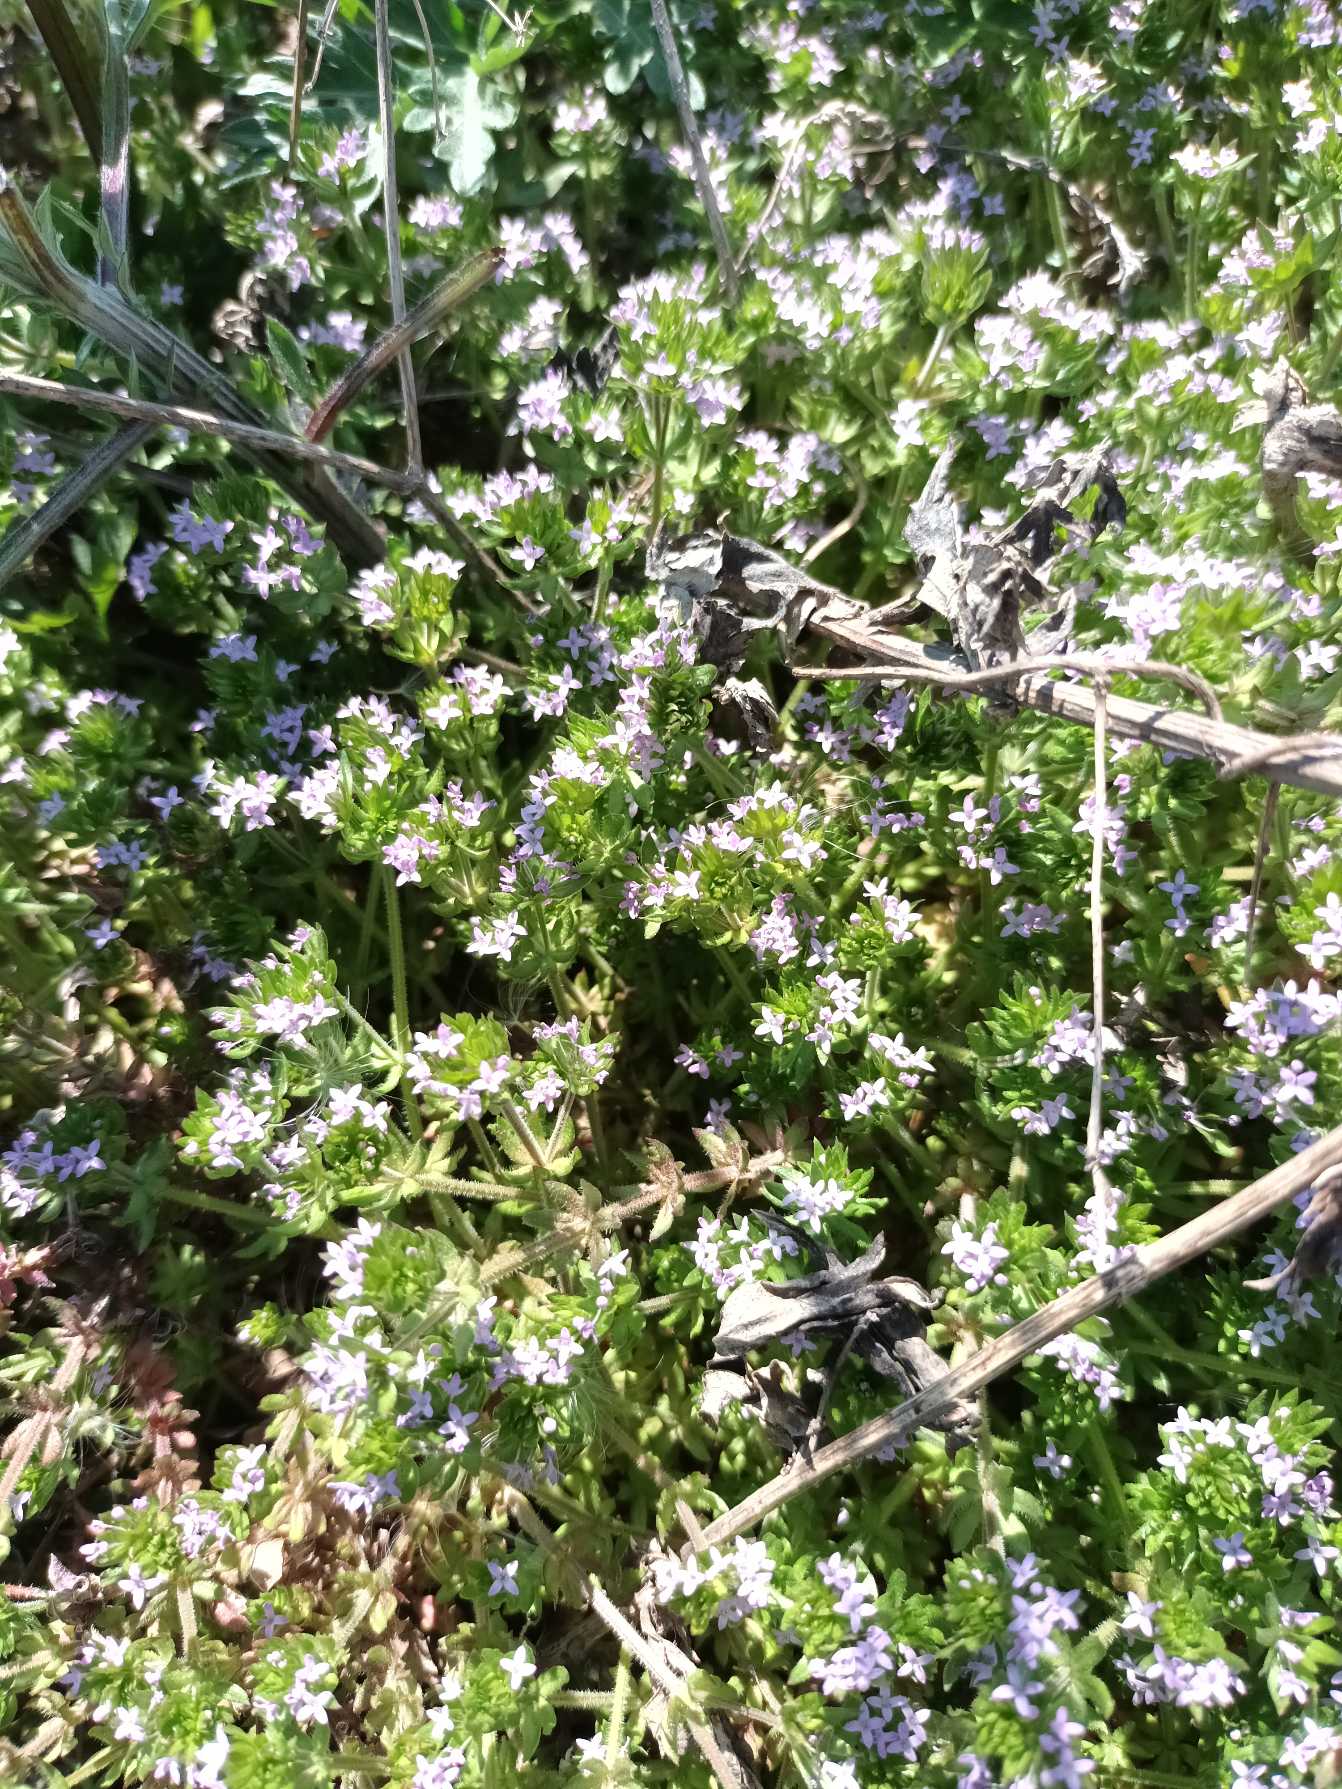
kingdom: Plantae
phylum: Tracheophyta
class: Magnoliopsida
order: Gentianales
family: Rubiaceae
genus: Sherardia
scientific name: Sherardia arvensis
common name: Blåstjerne
